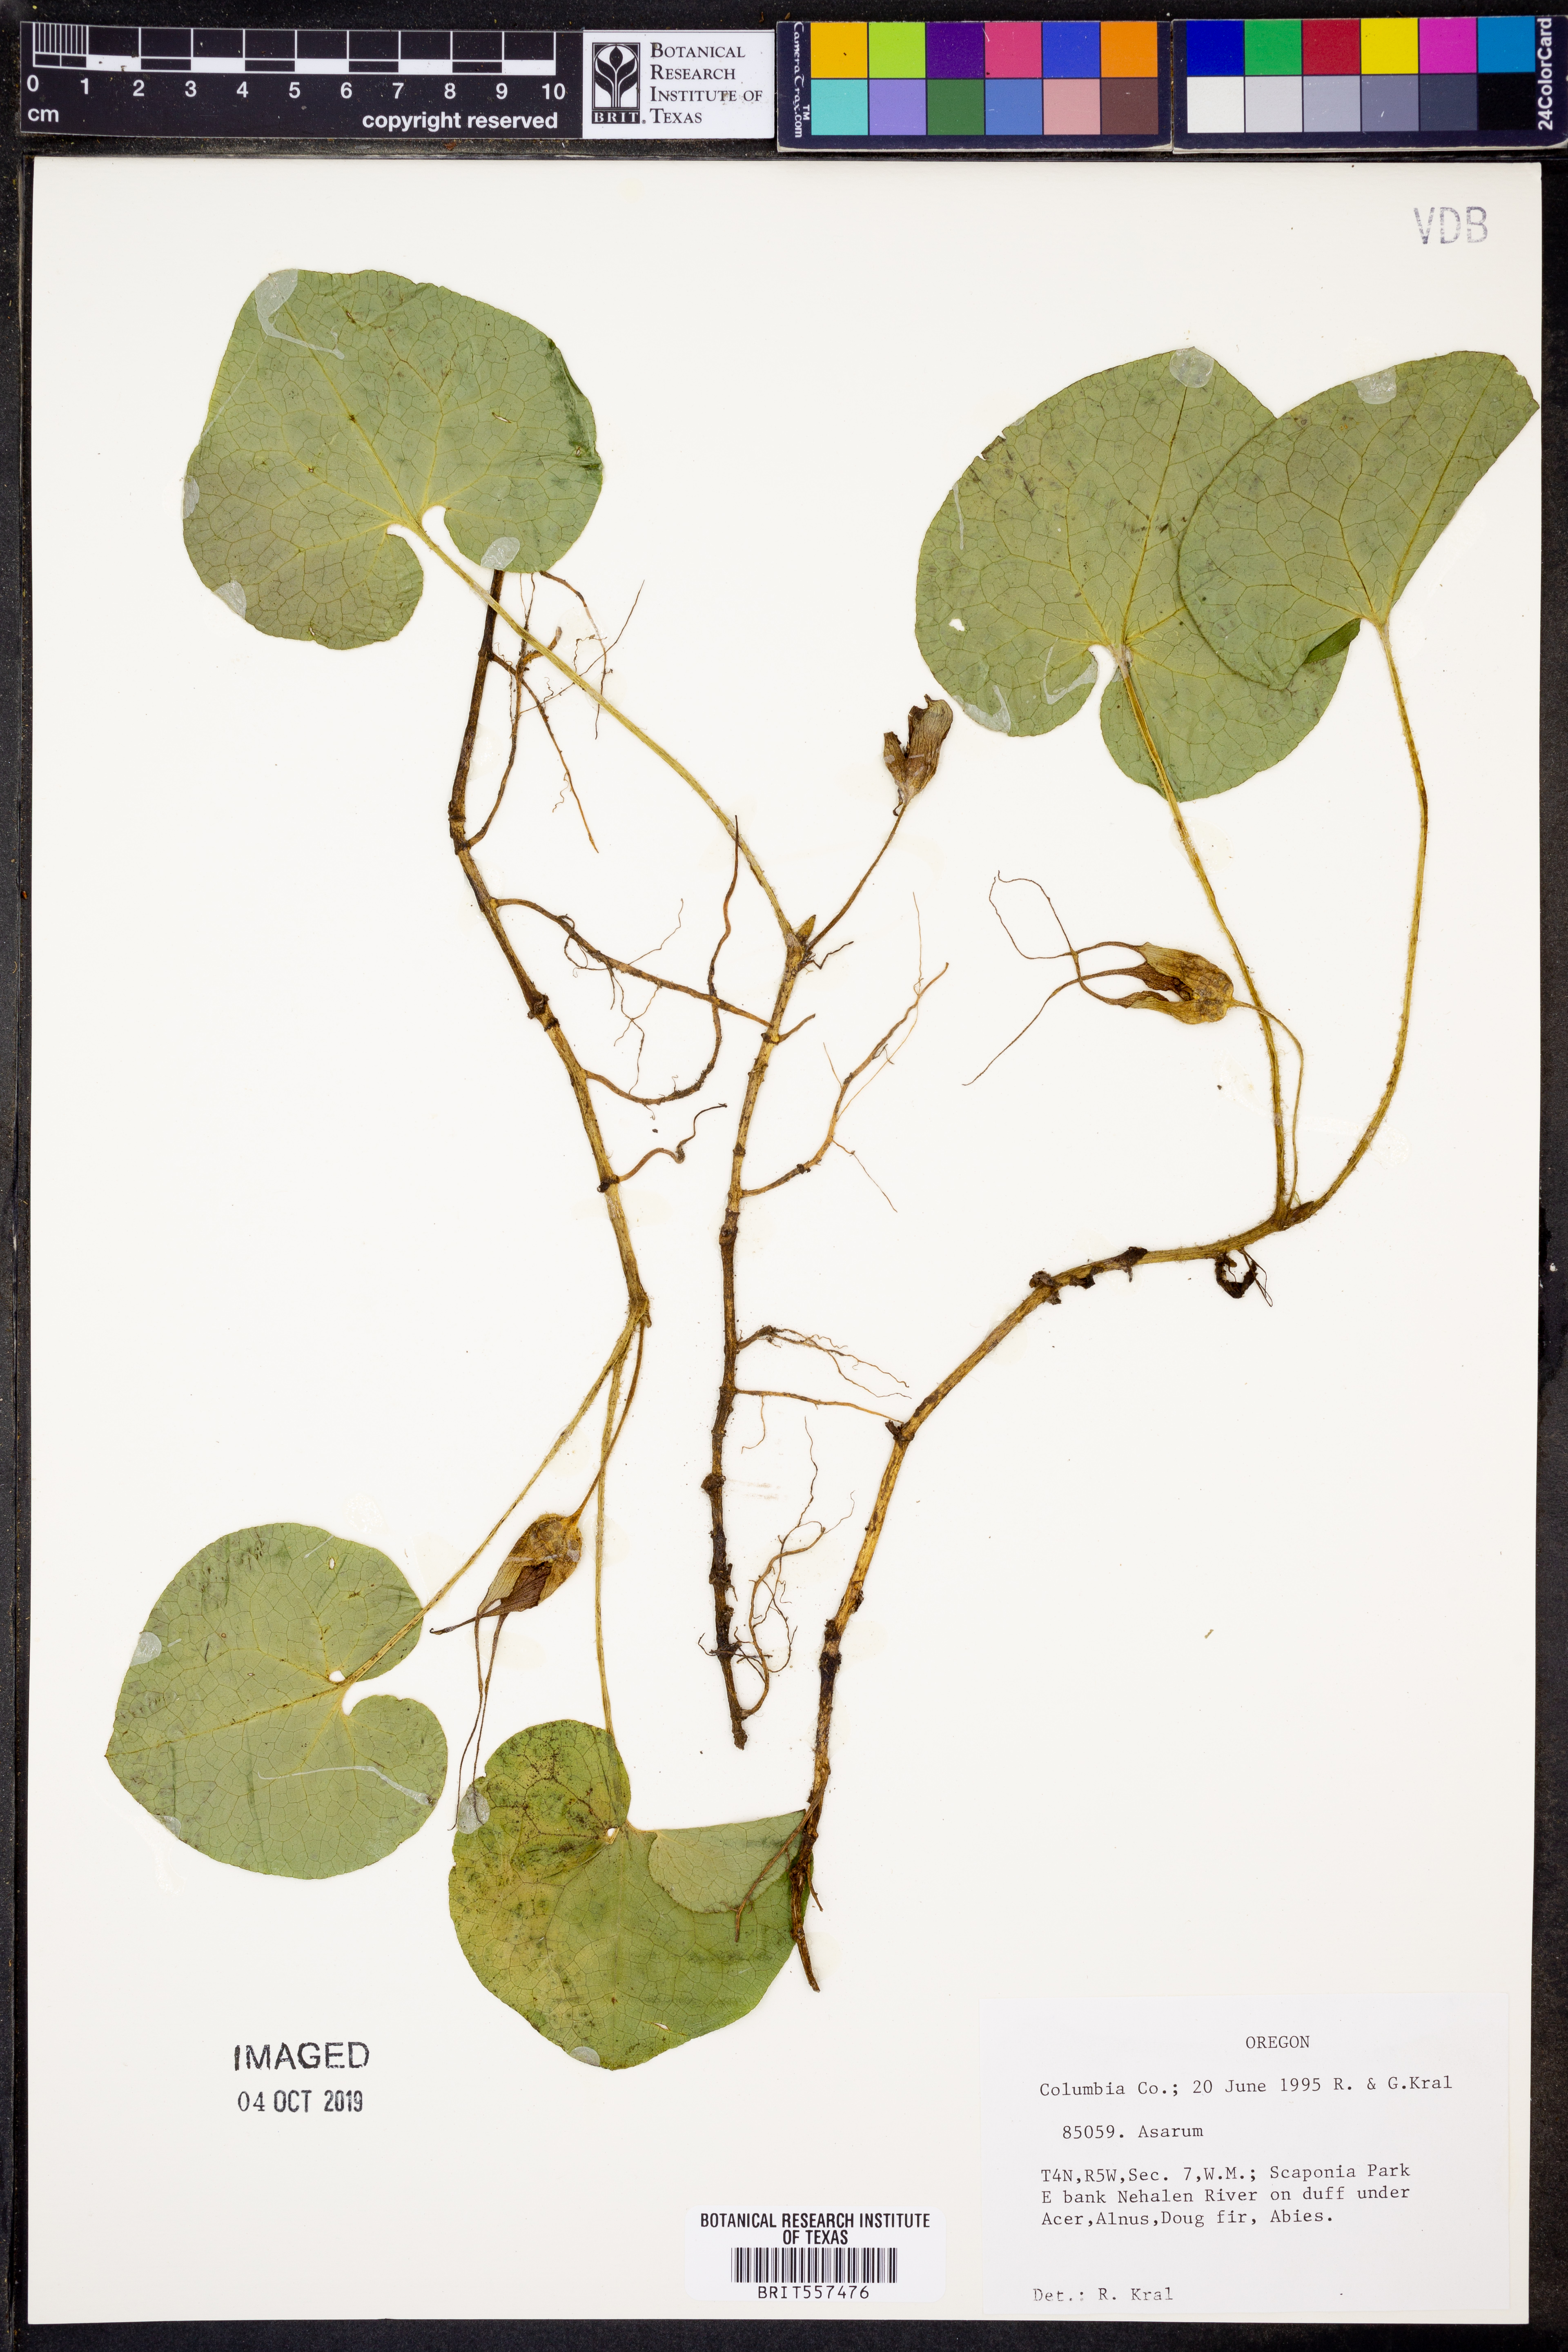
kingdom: Plantae
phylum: Tracheophyta
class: Magnoliopsida
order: Piperales
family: Aristolochiaceae
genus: Asarum
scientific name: Asarum
